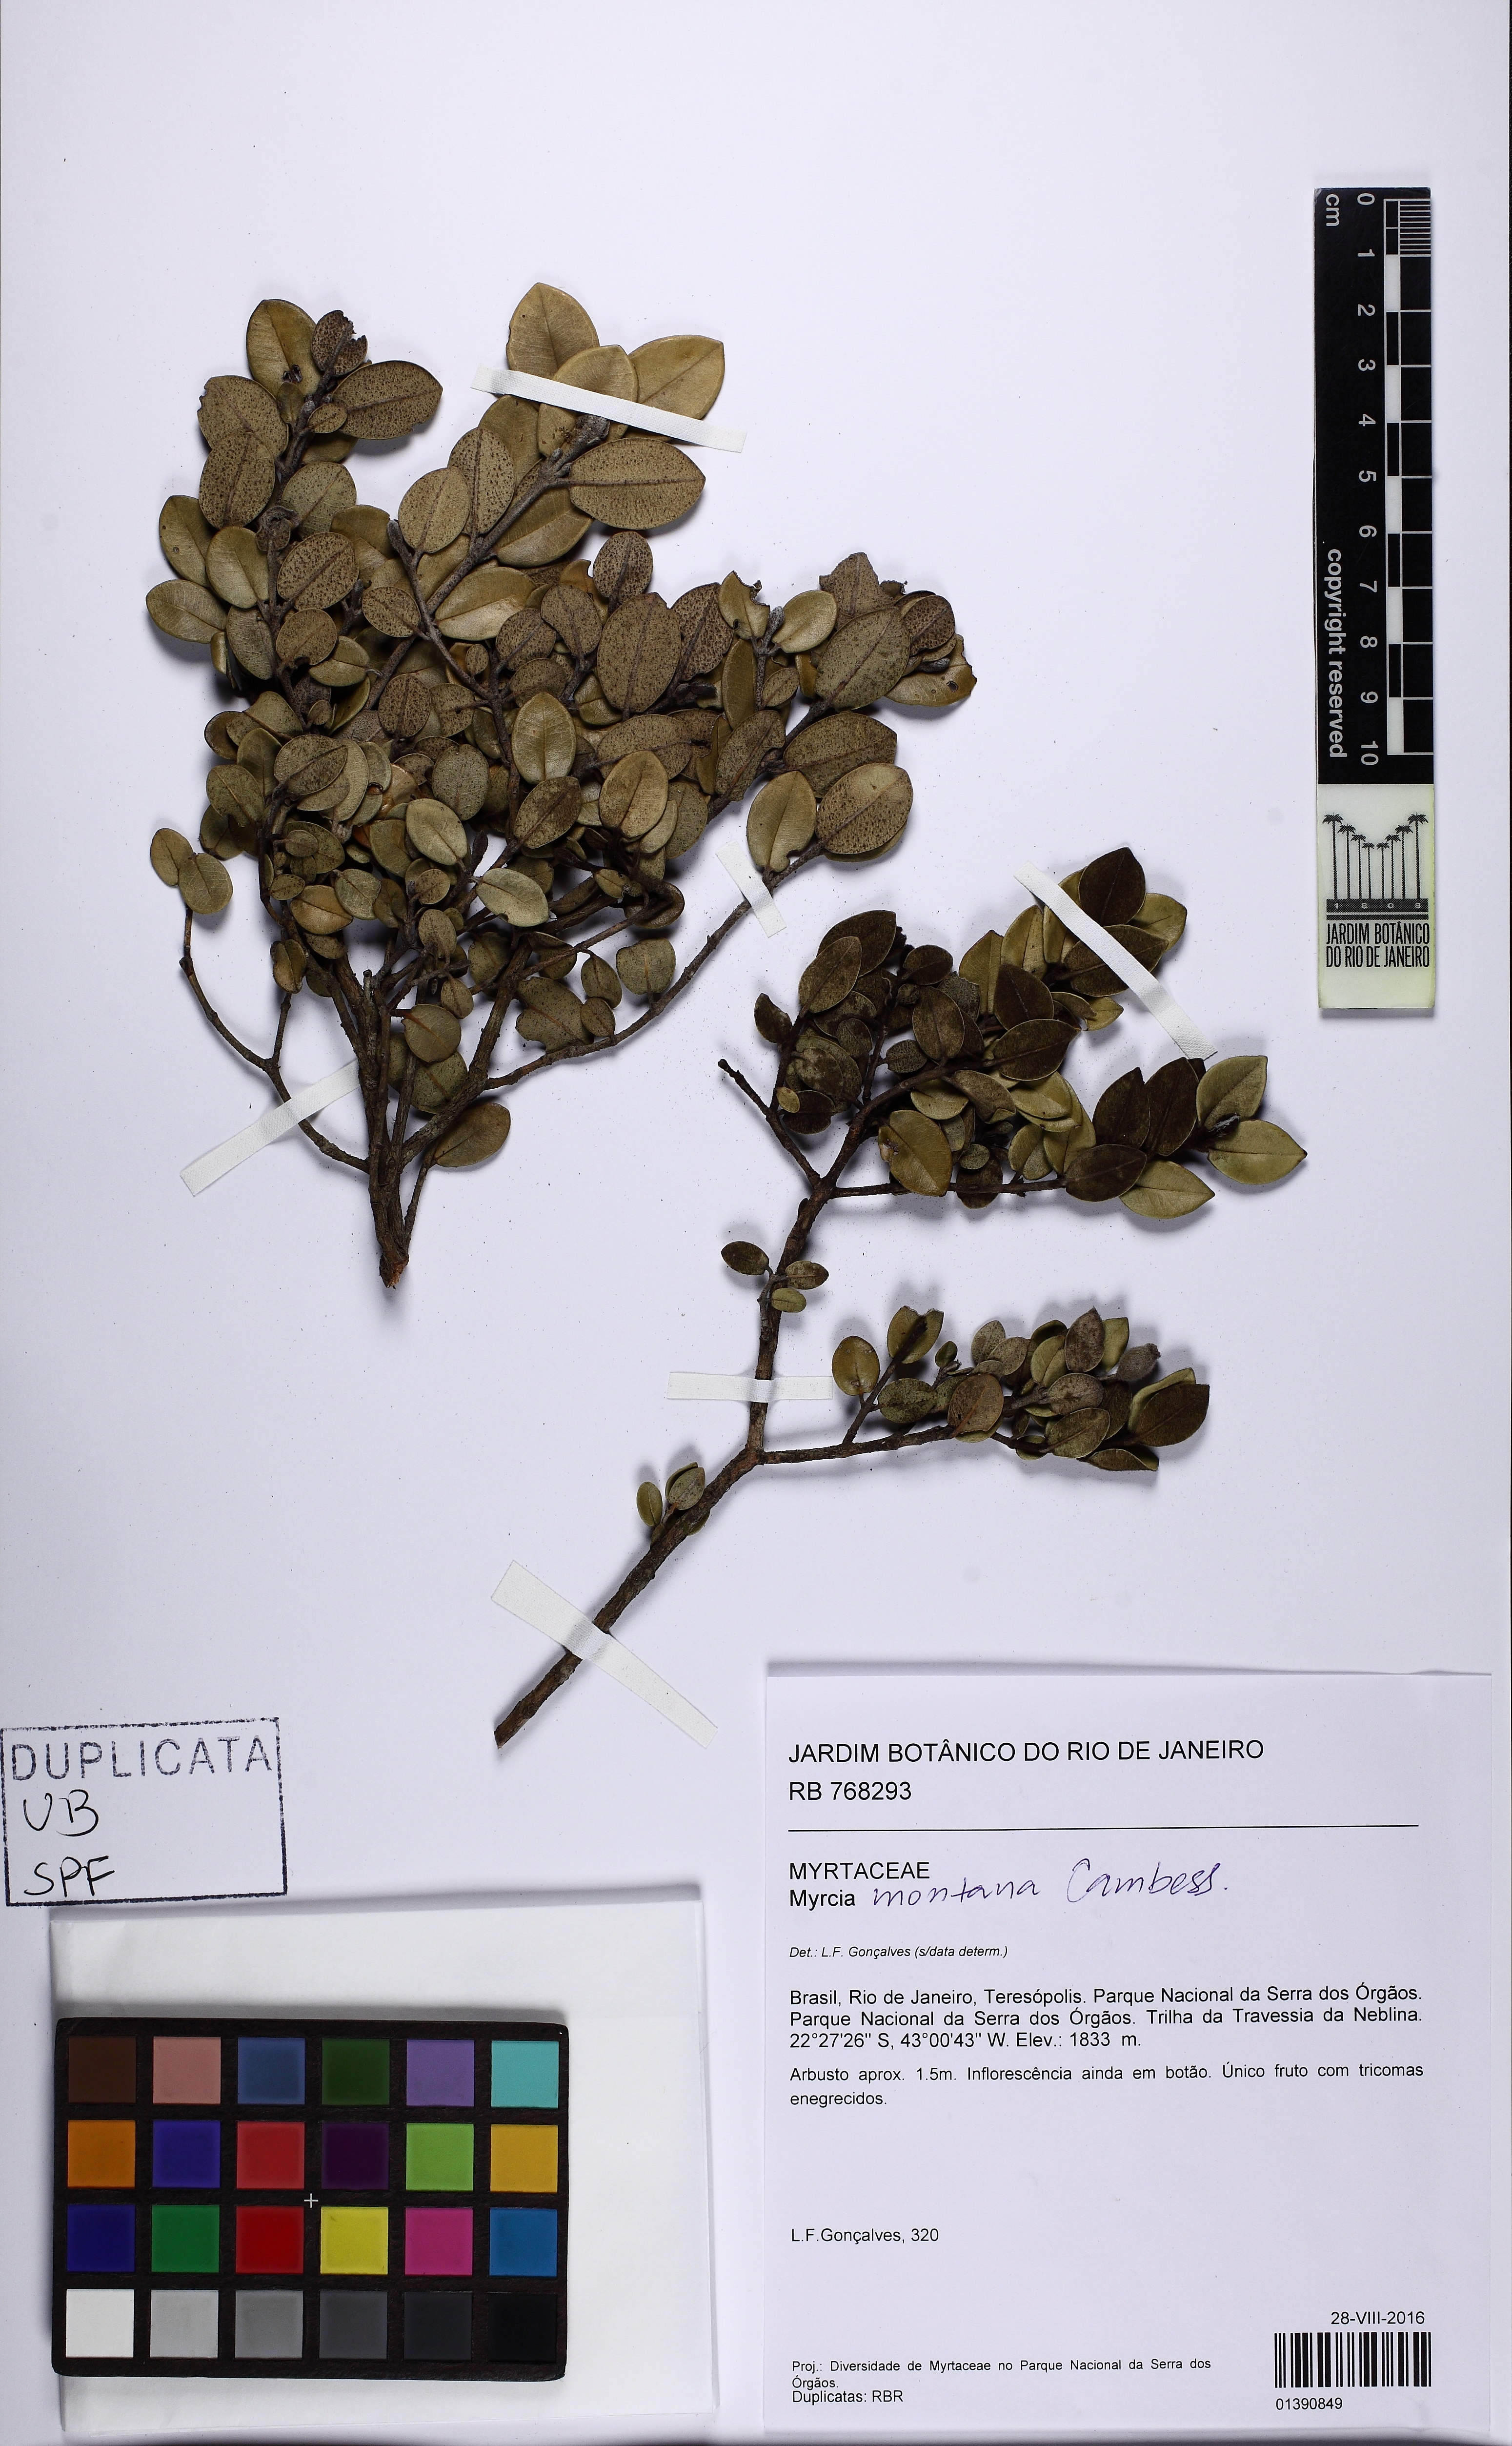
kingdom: Plantae
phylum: Tracheophyta
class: Magnoliopsida
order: Myrtales
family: Myrtaceae
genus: Myrceugenia
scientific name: Myrceugenia
